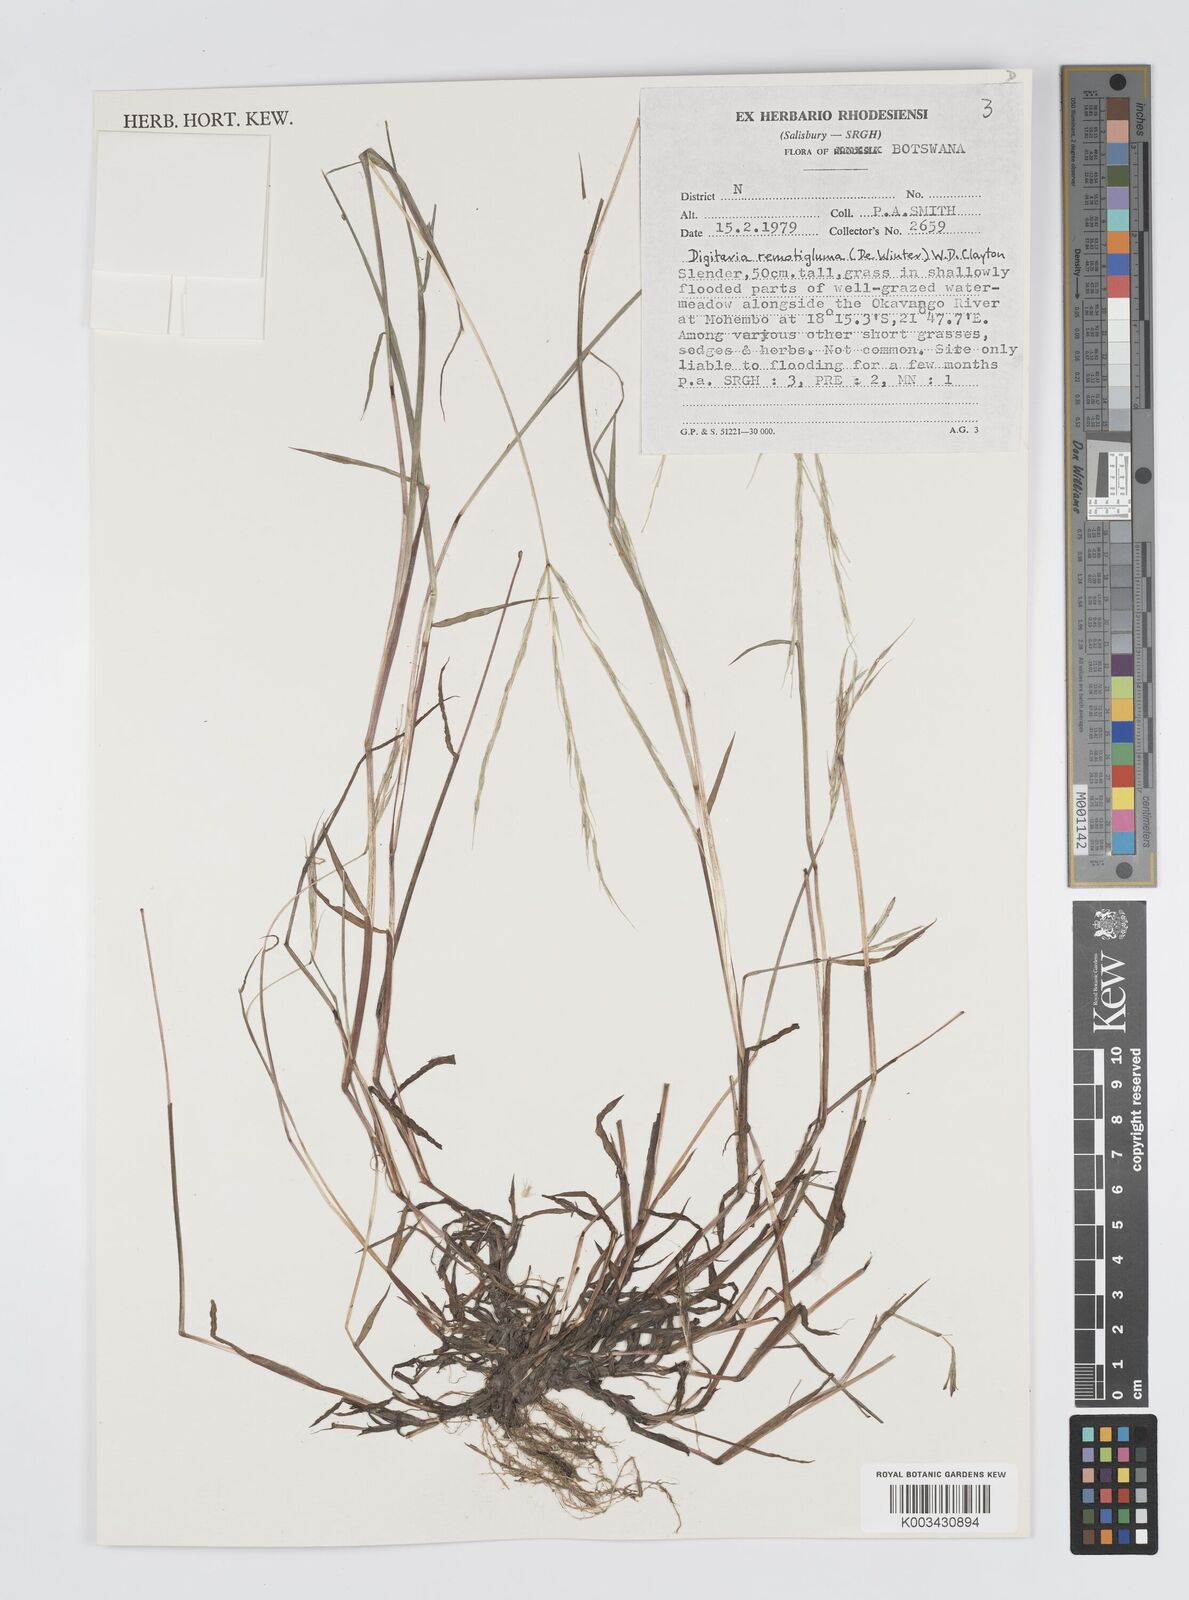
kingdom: Plantae
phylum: Tracheophyta
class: Liliopsida
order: Poales
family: Poaceae
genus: Digitaria
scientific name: Digitaria remotigluma
